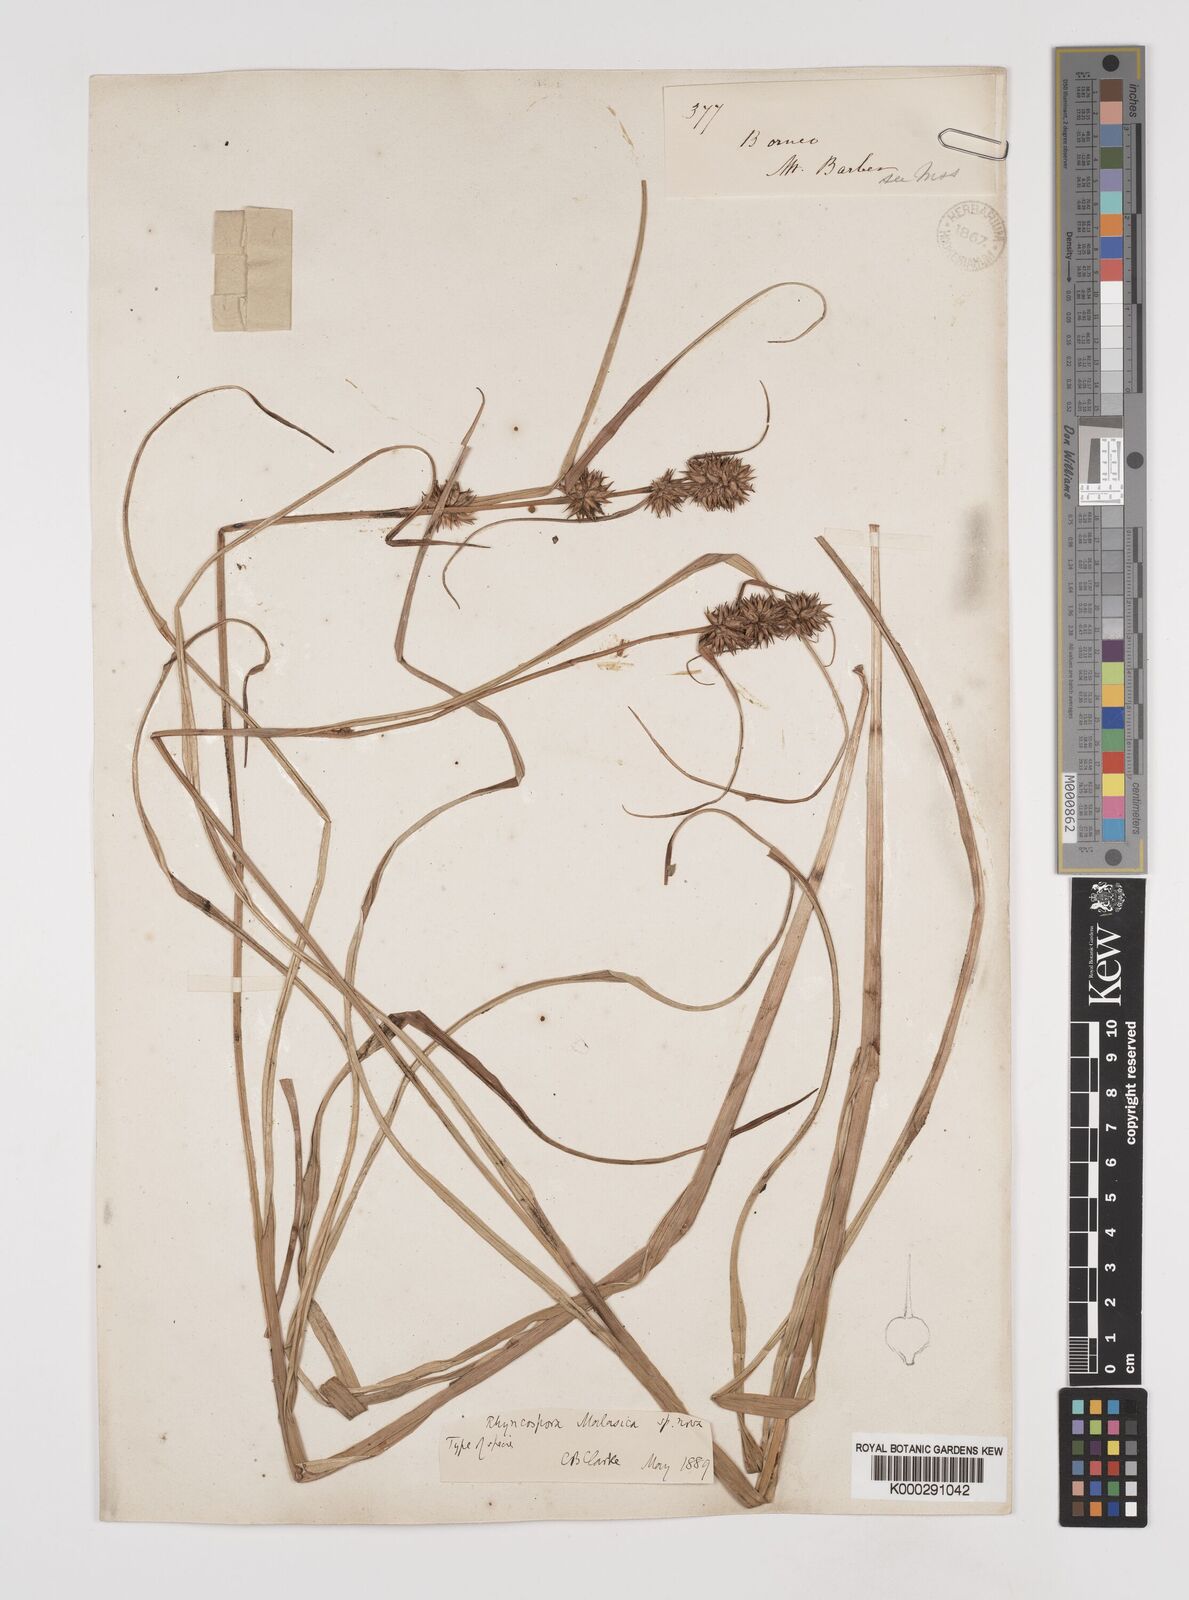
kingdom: Plantae
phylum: Tracheophyta
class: Liliopsida
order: Poales
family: Cyperaceae
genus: Rhynchospora
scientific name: Rhynchospora malasica
